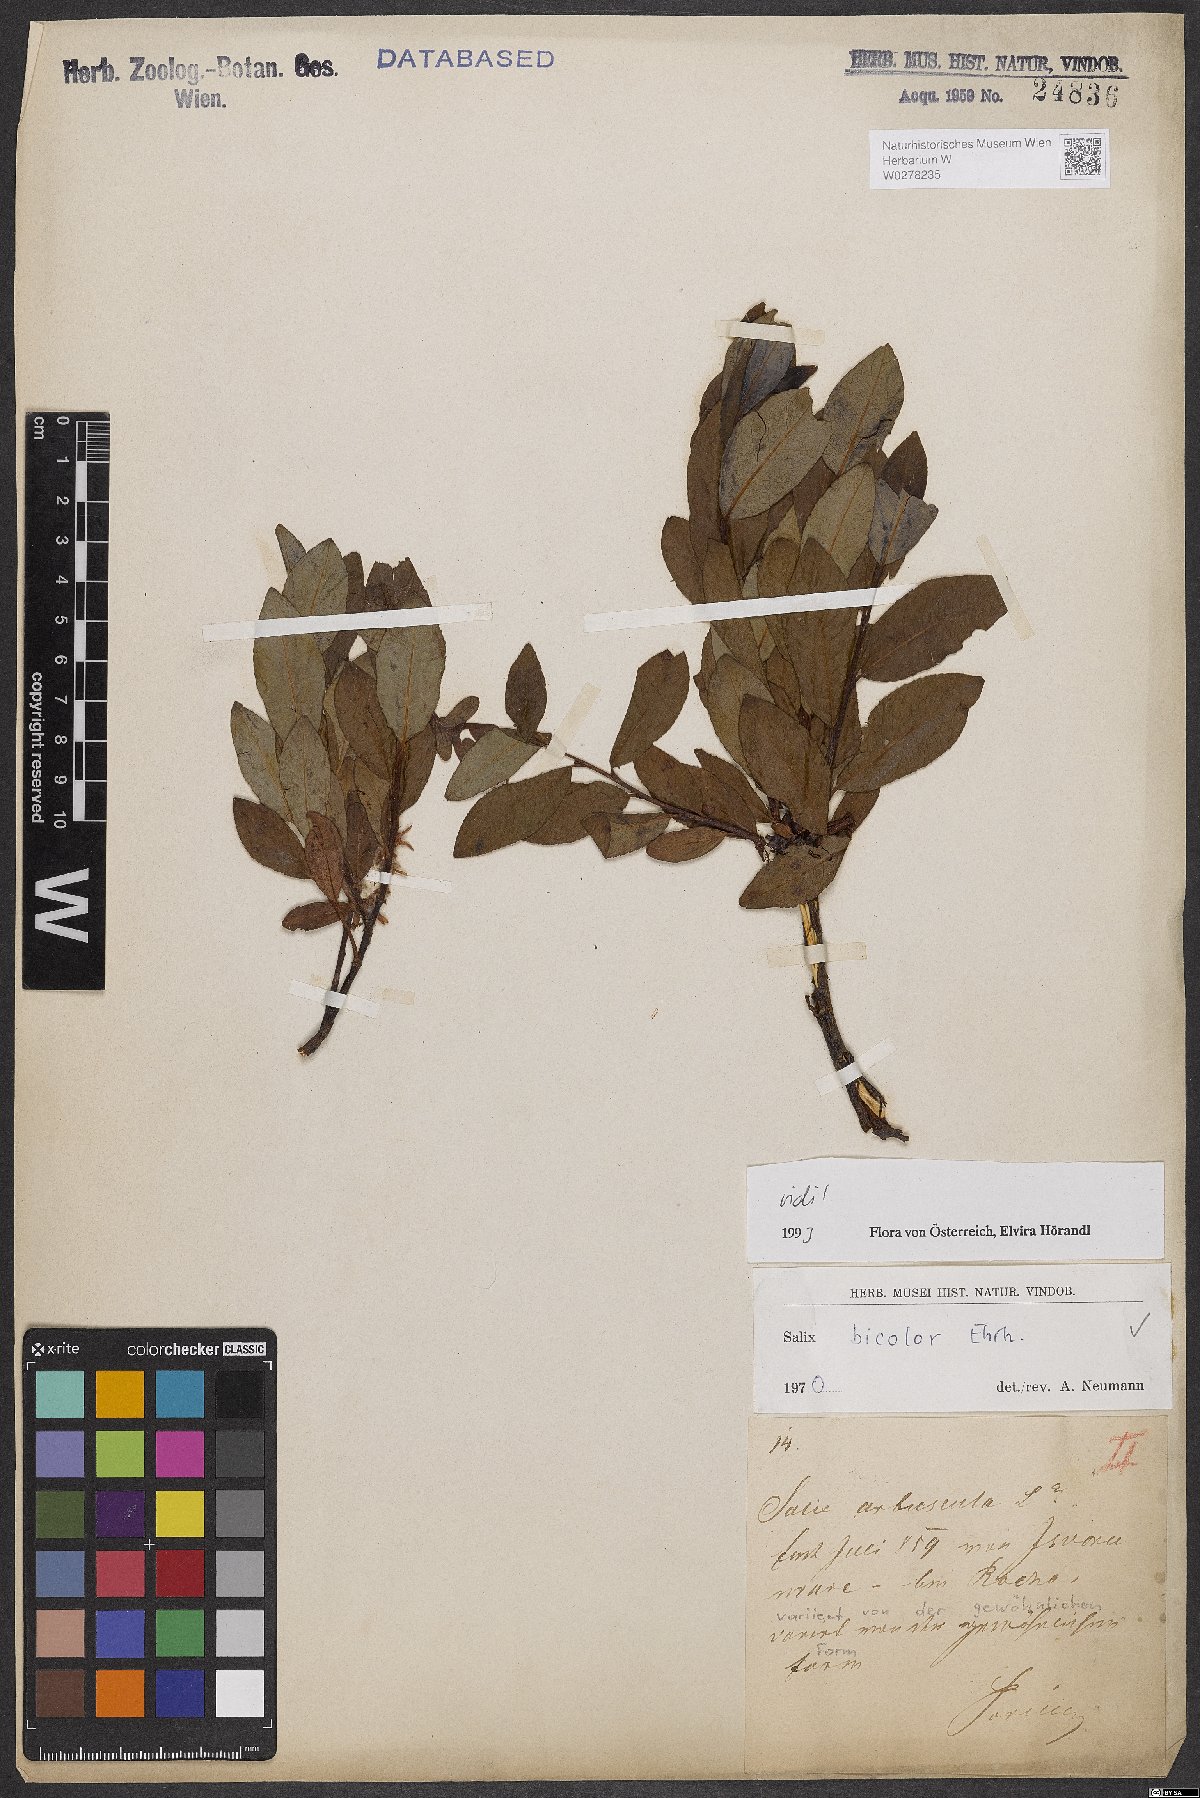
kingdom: Plantae
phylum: Tracheophyta
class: Magnoliopsida
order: Malpighiales
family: Salicaceae
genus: Salix
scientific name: Salix bicolor
